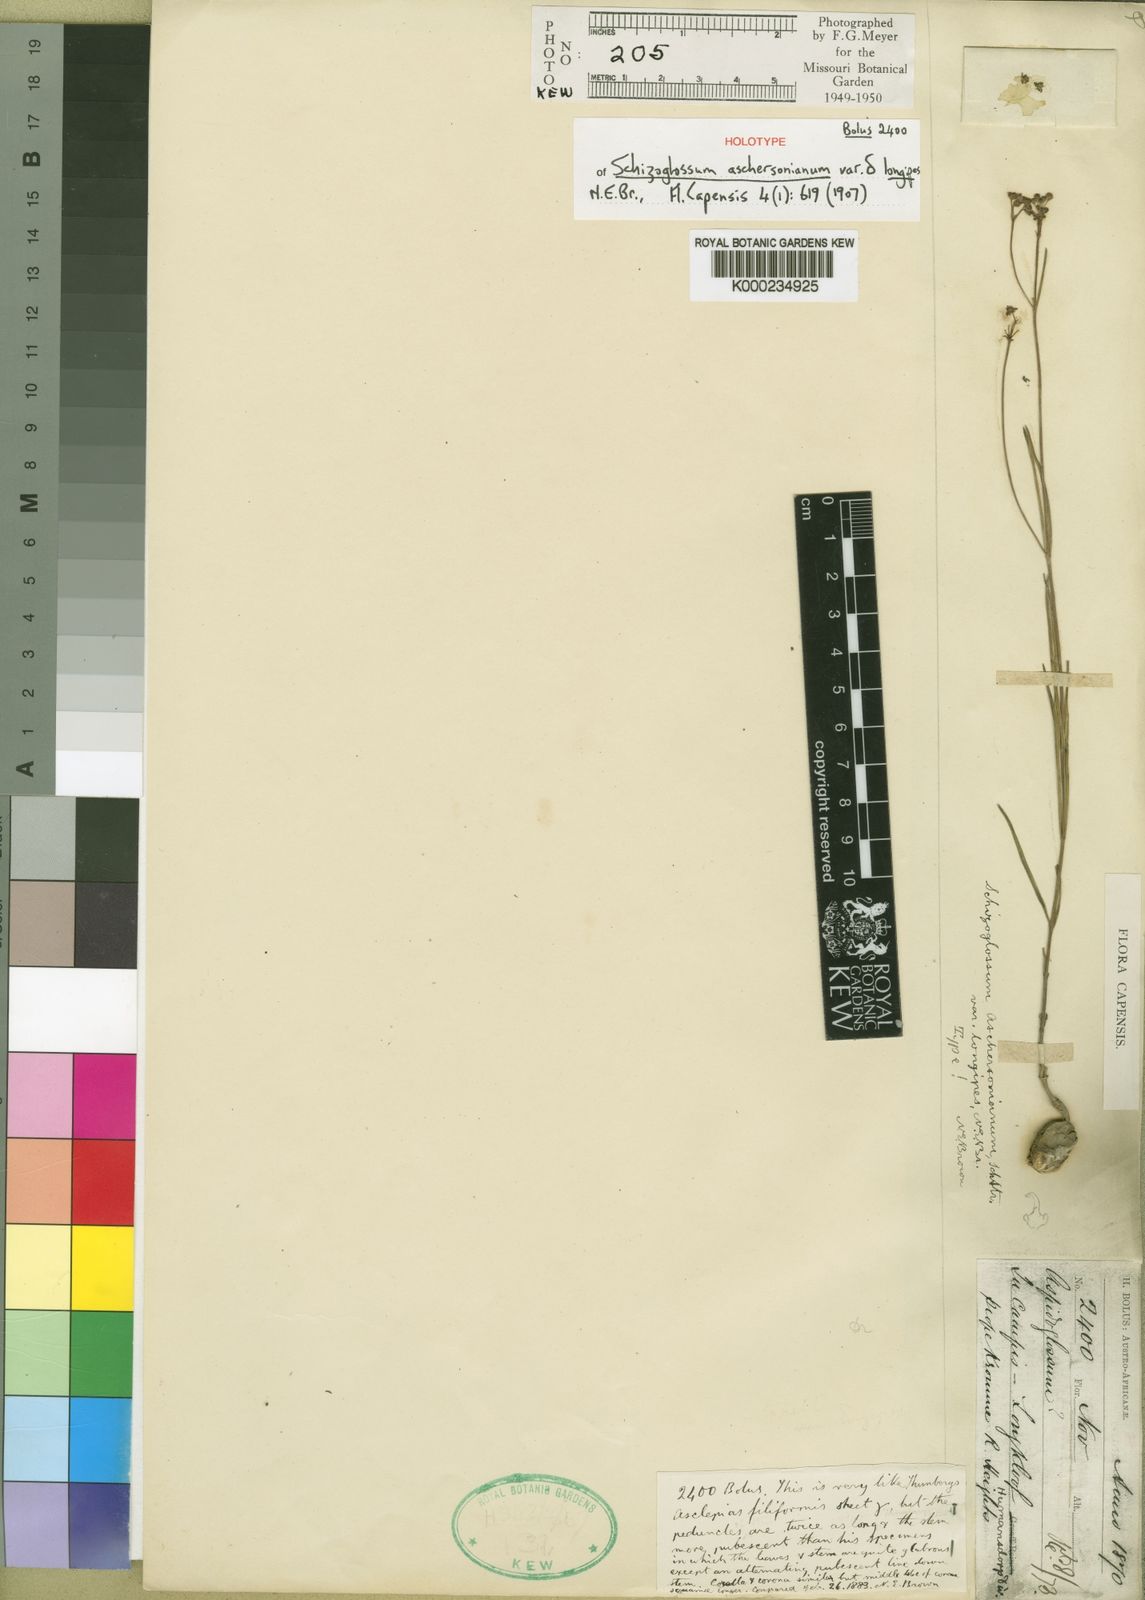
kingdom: Plantae
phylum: Tracheophyta
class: Magnoliopsida
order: Gentianales
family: Apocynaceae
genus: Schizoglossum
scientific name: Schizoglossum aschersonianum
